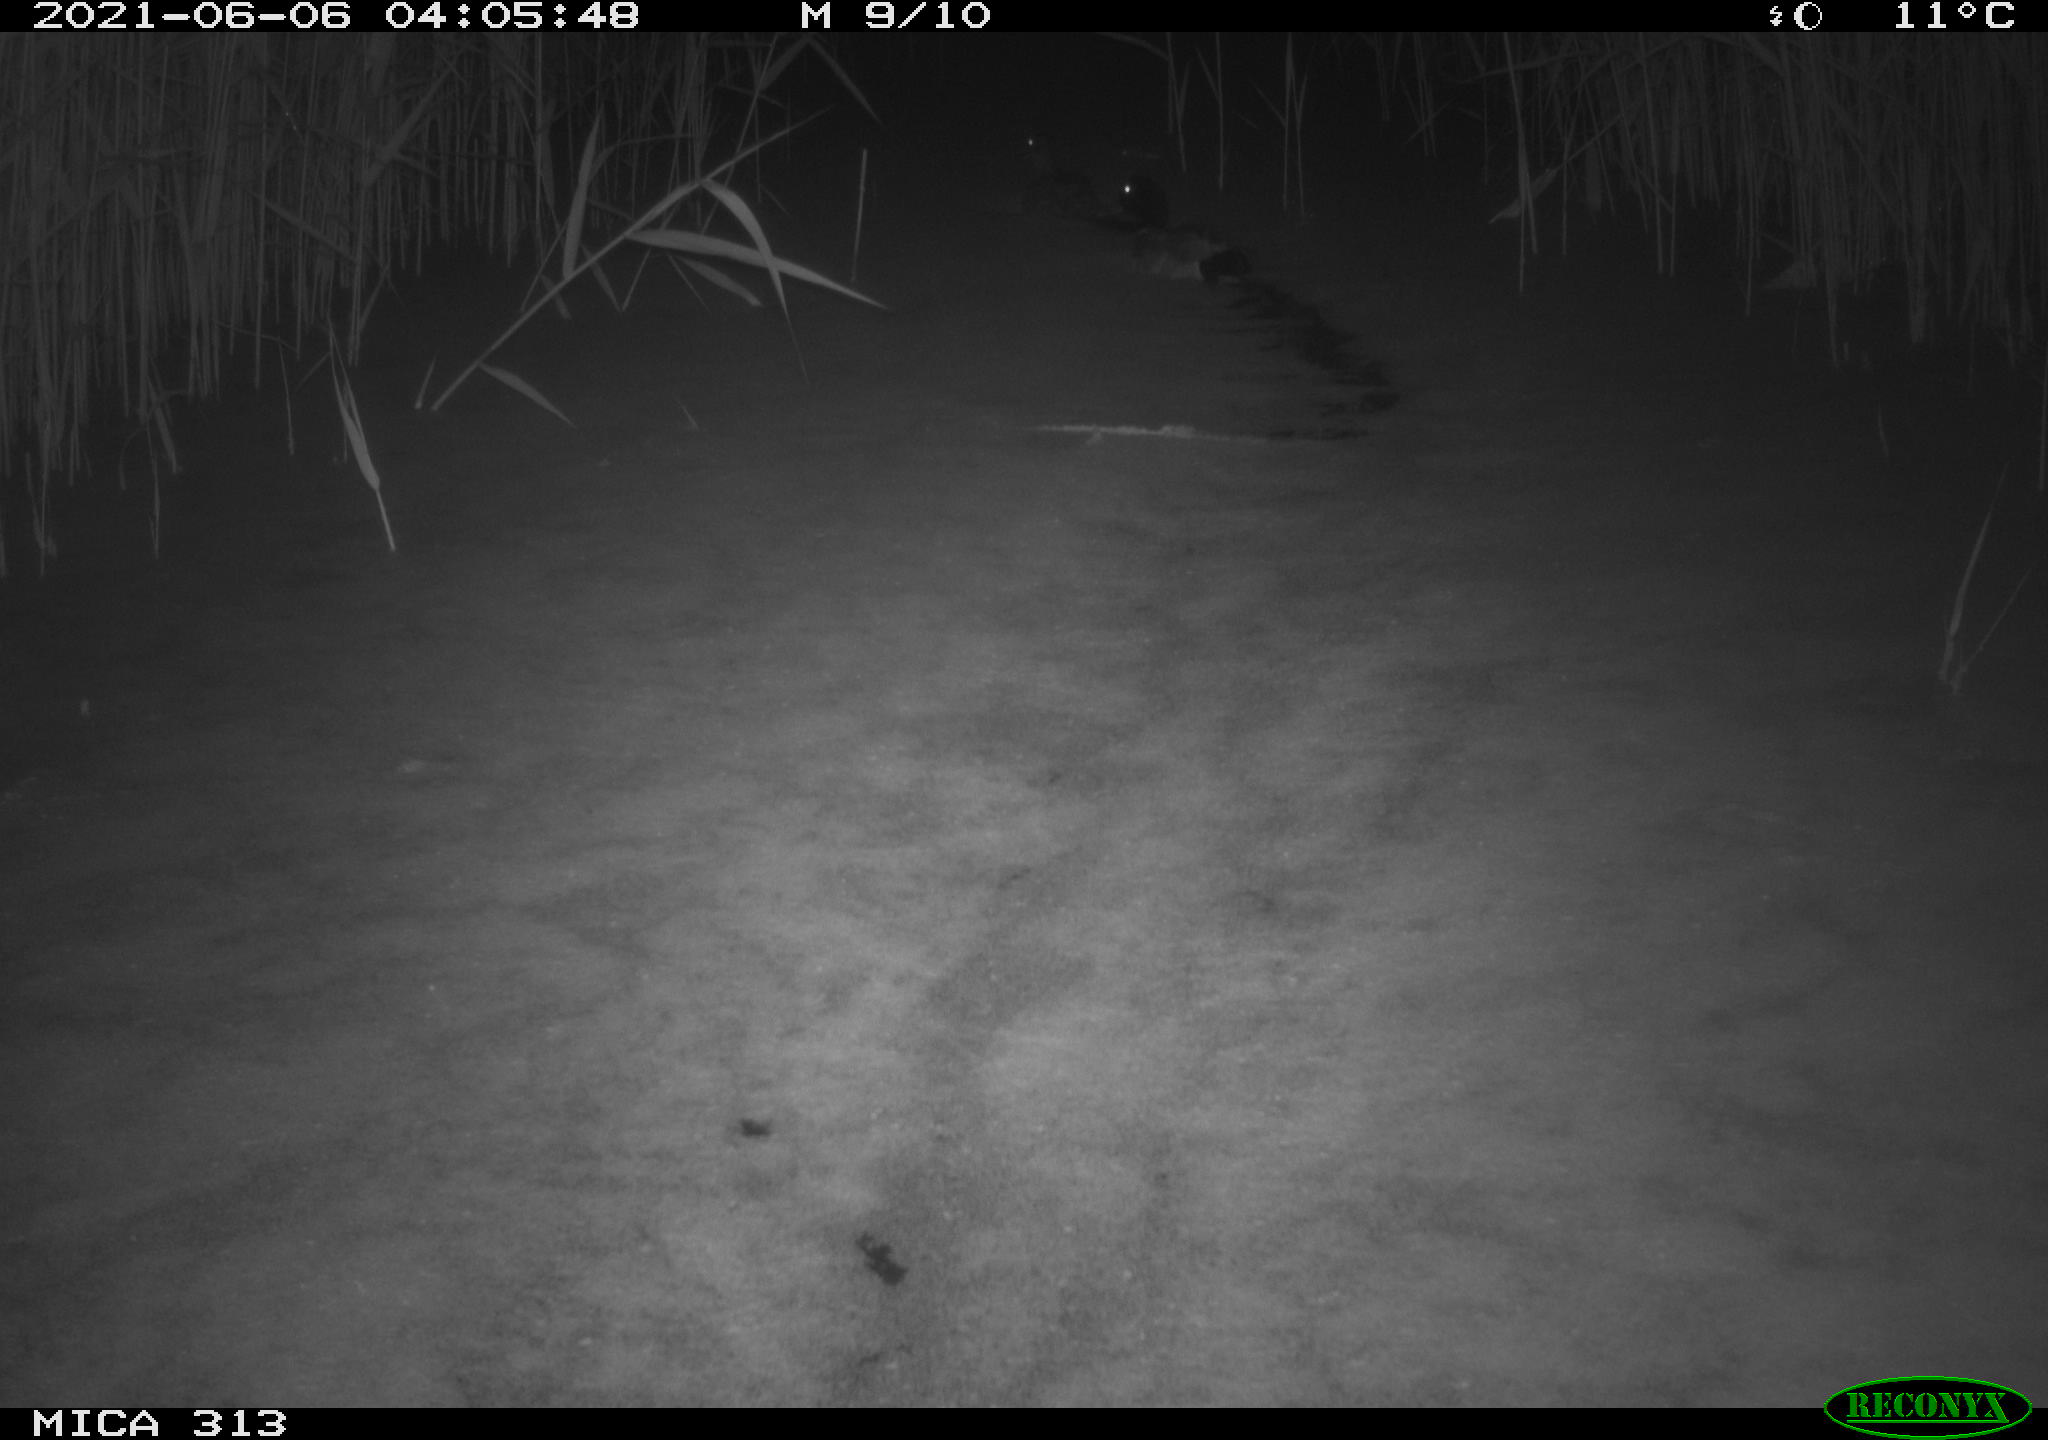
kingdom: Animalia
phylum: Chordata
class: Aves
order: Anseriformes
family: Anatidae
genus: Anas
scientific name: Anas
